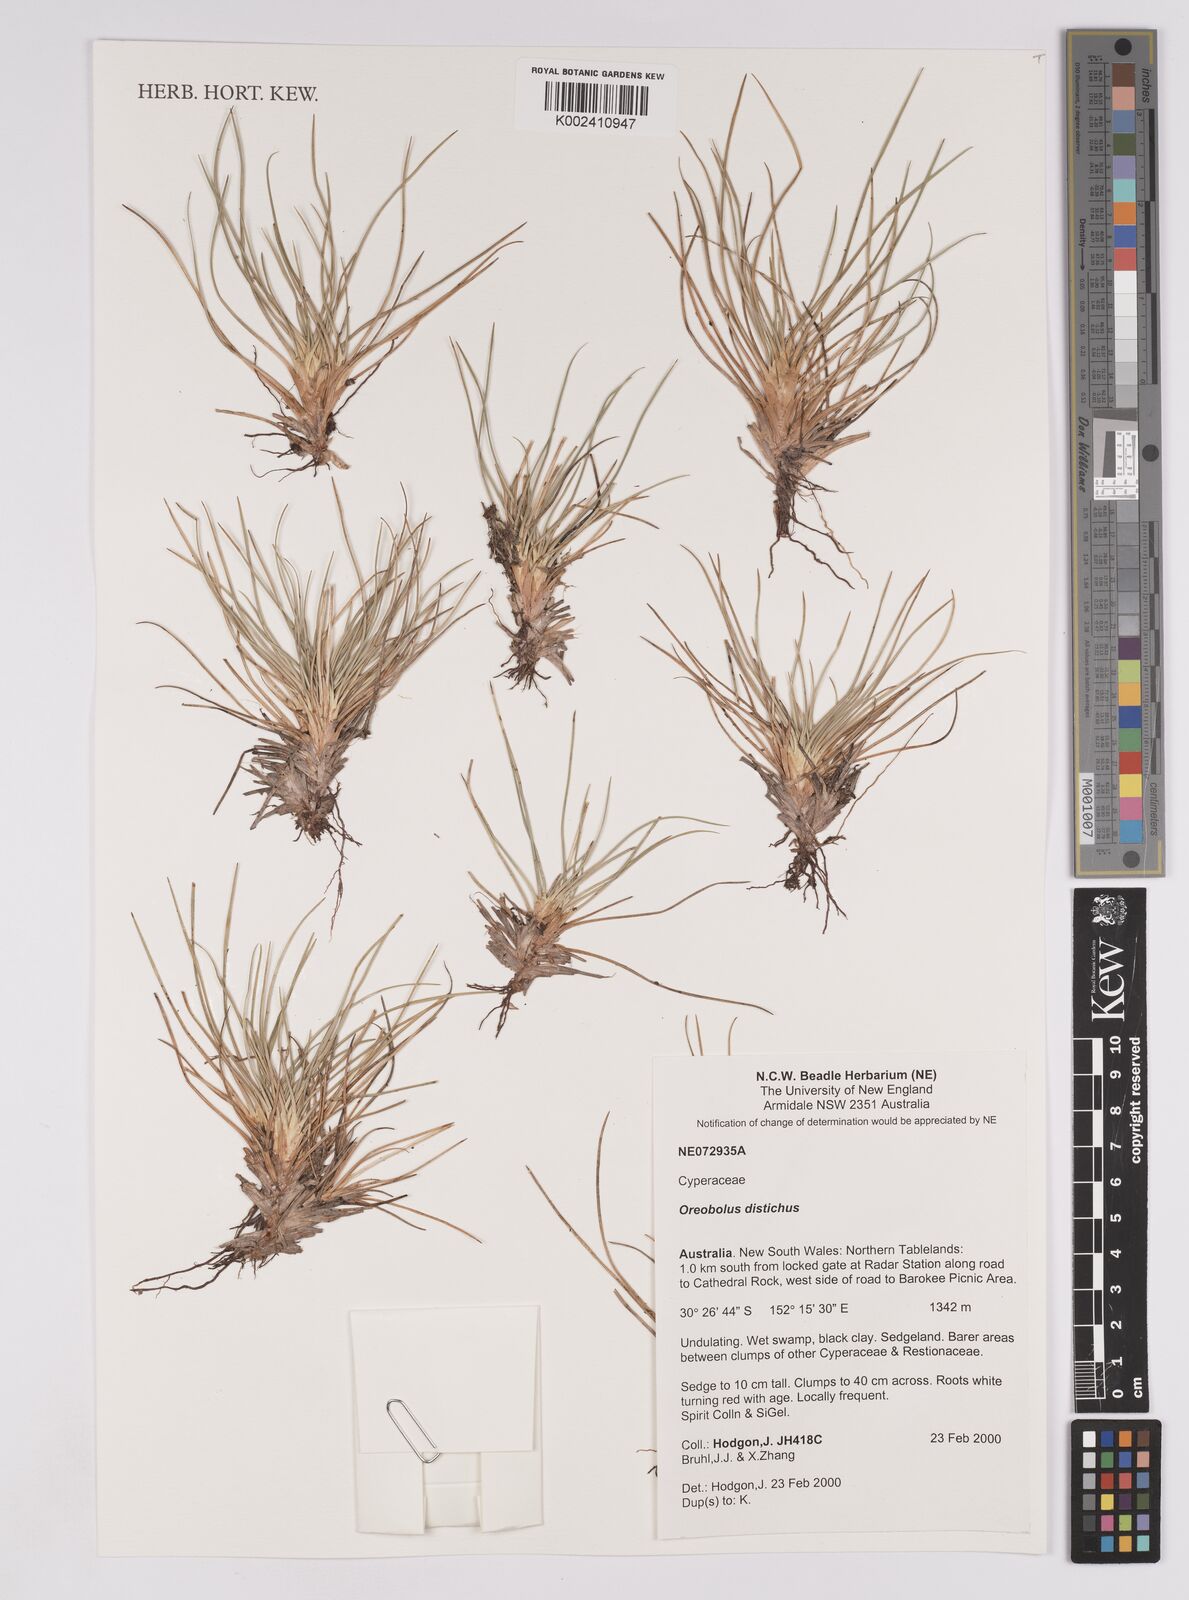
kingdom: Plantae
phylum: Tracheophyta
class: Liliopsida
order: Poales
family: Cyperaceae
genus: Oreobolus
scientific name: Oreobolus distichus
